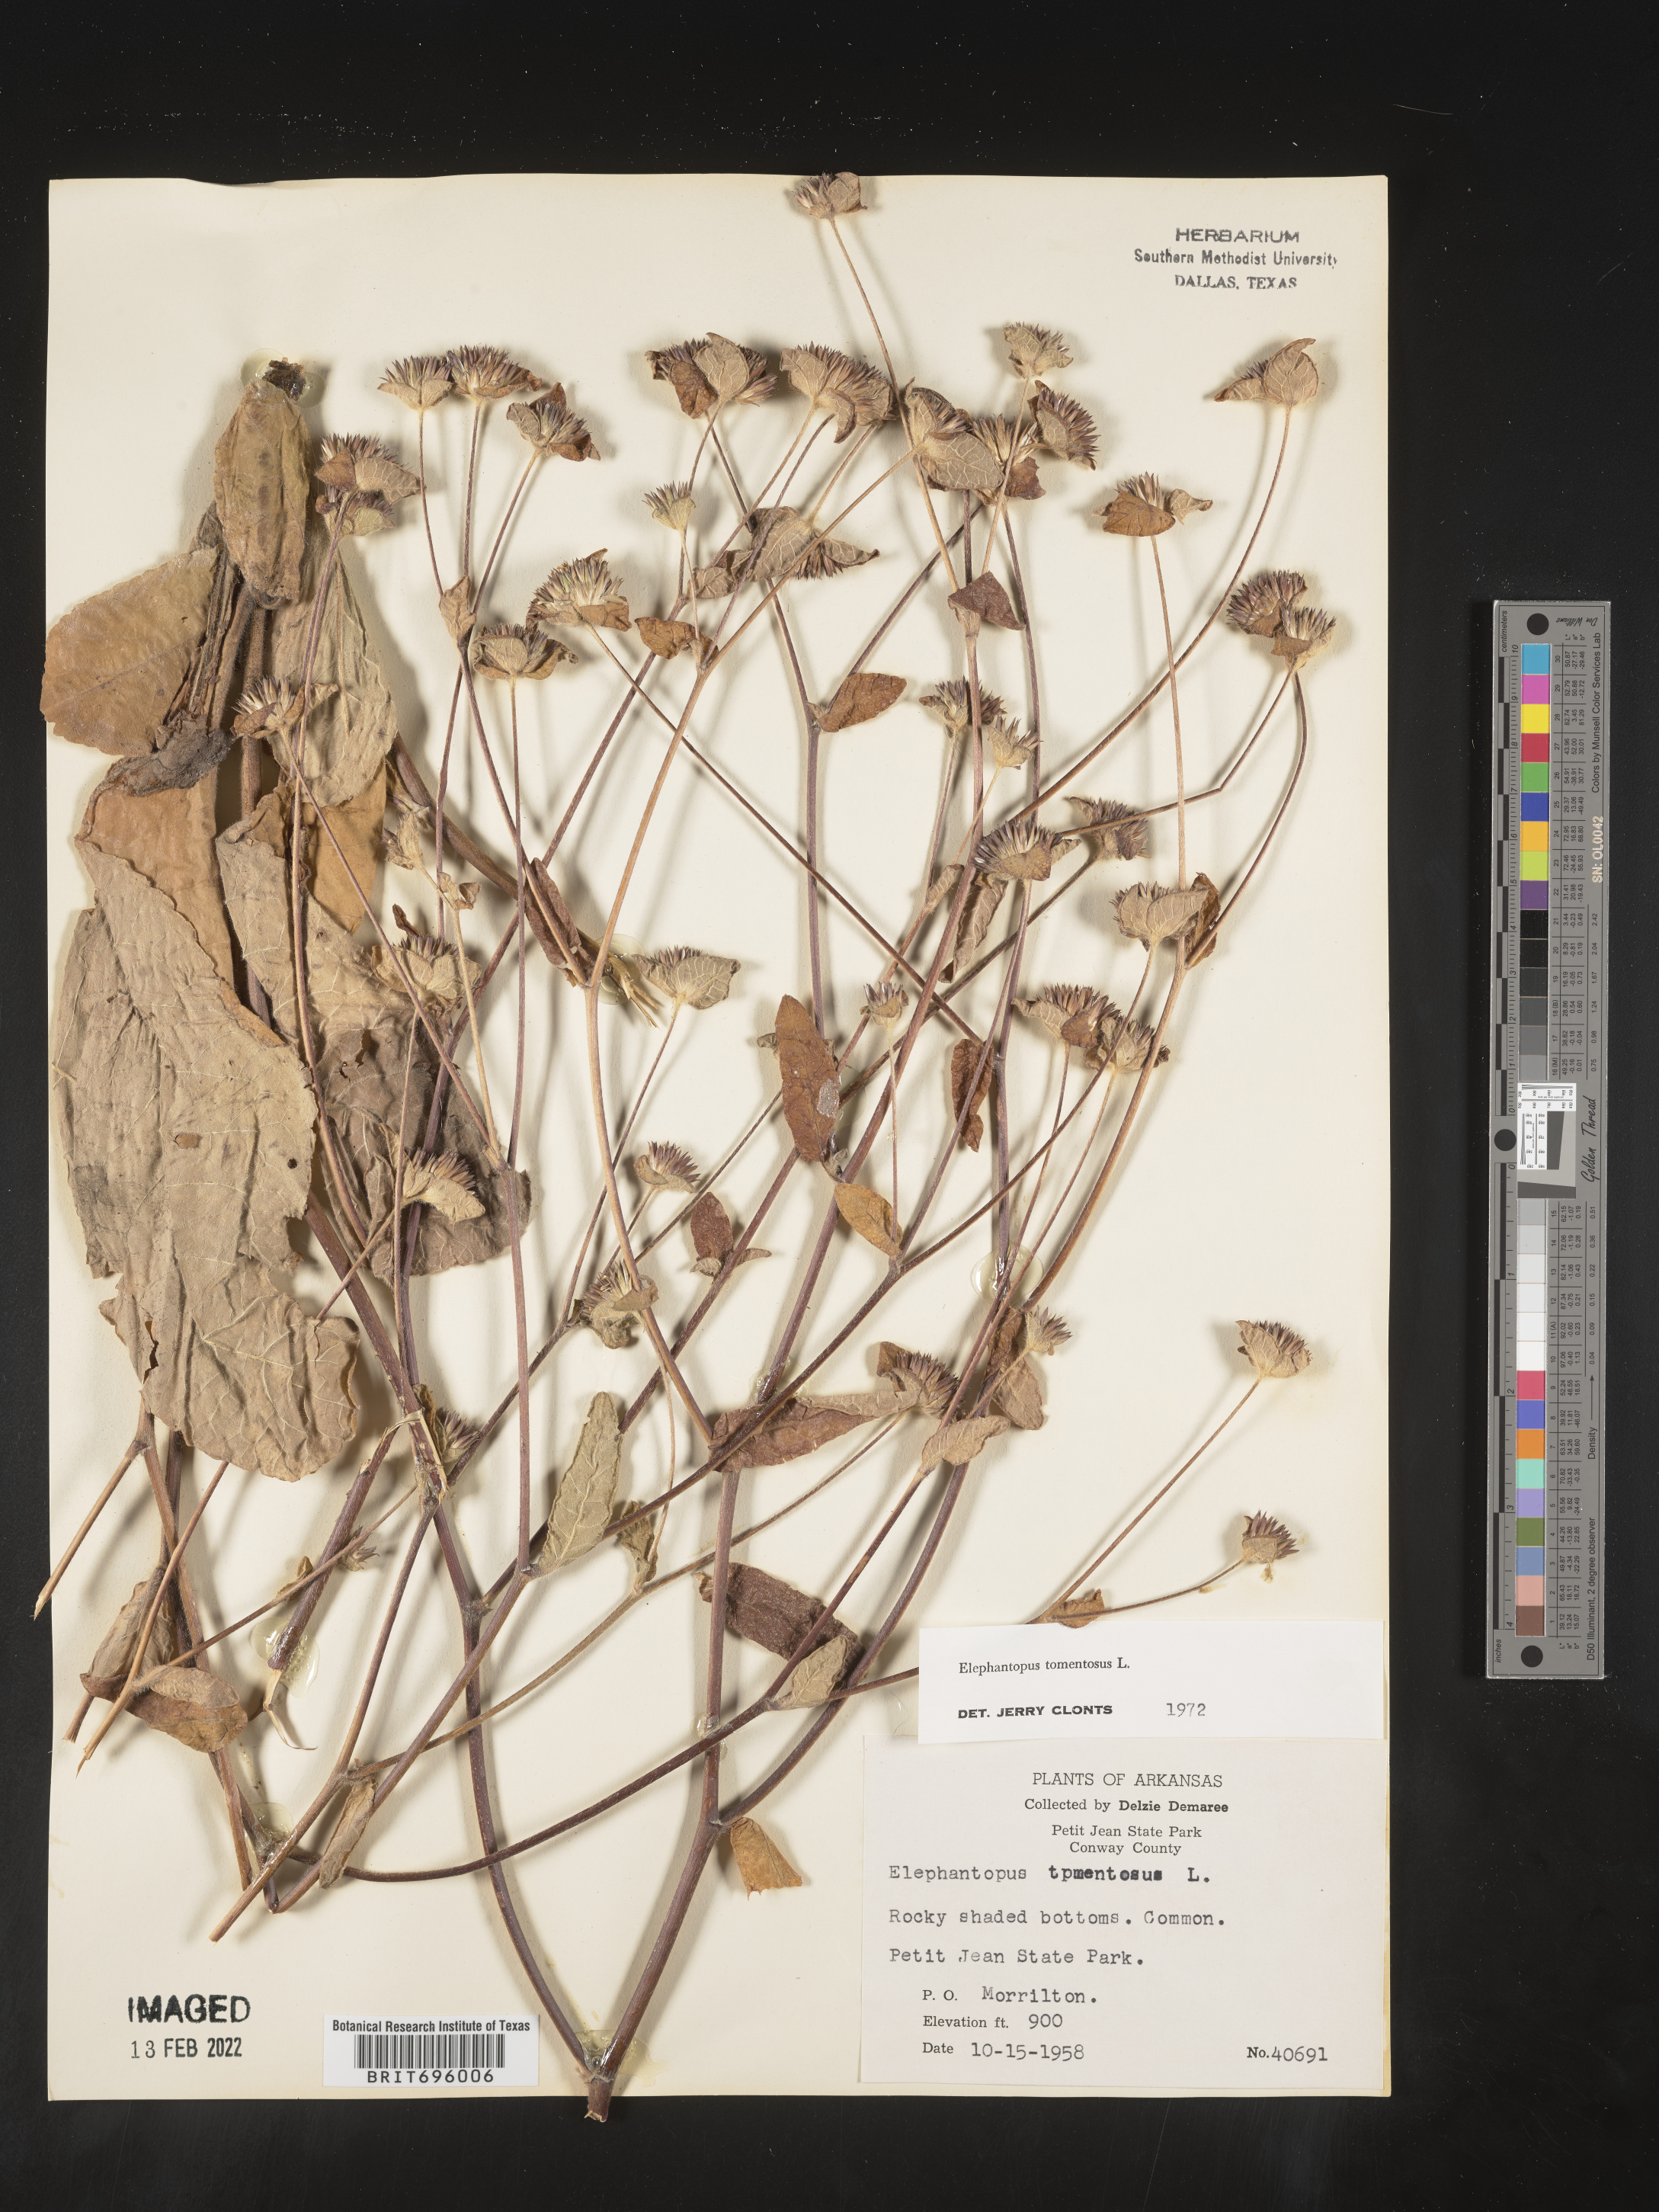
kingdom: Plantae
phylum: Tracheophyta
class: Magnoliopsida
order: Asterales
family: Asteraceae
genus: Elephantopus
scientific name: Elephantopus tomentosus
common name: Tobacco-weed
